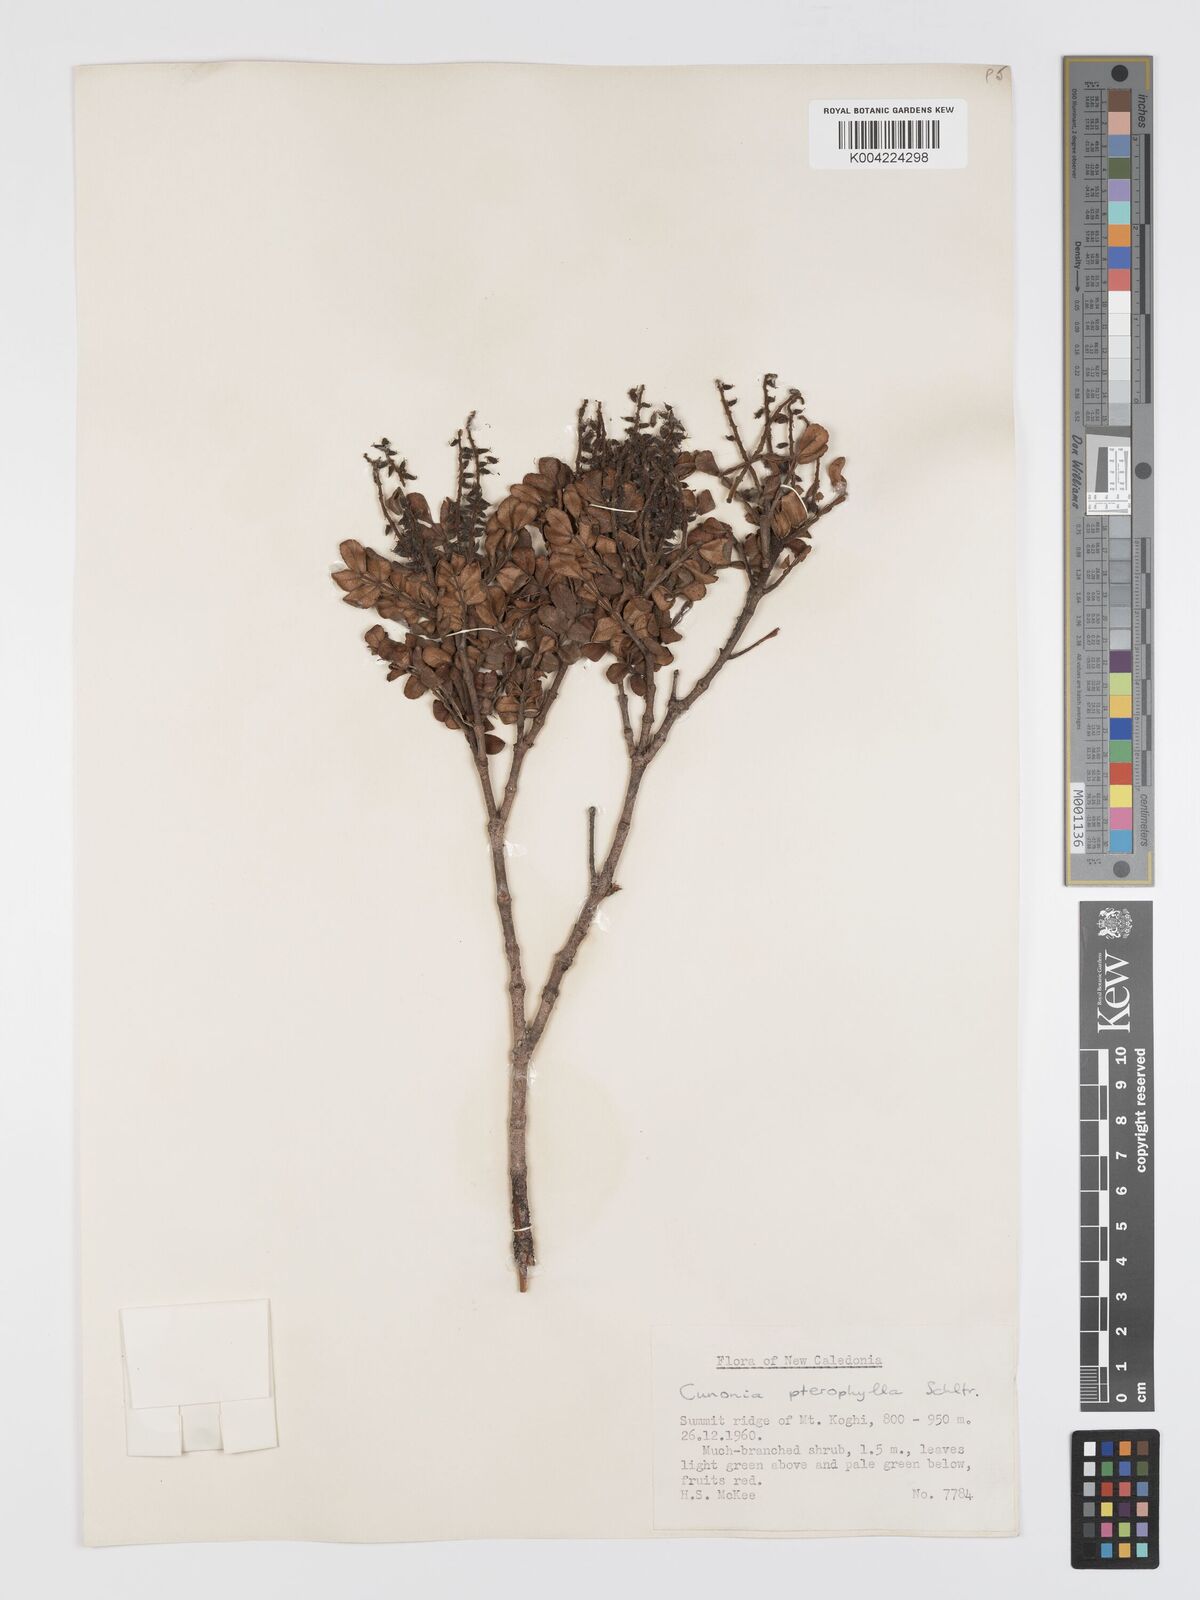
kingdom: Plantae
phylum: Tracheophyta
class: Magnoliopsida
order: Oxalidales
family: Cunoniaceae
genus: Cunonia
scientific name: Cunonia pterophylla
